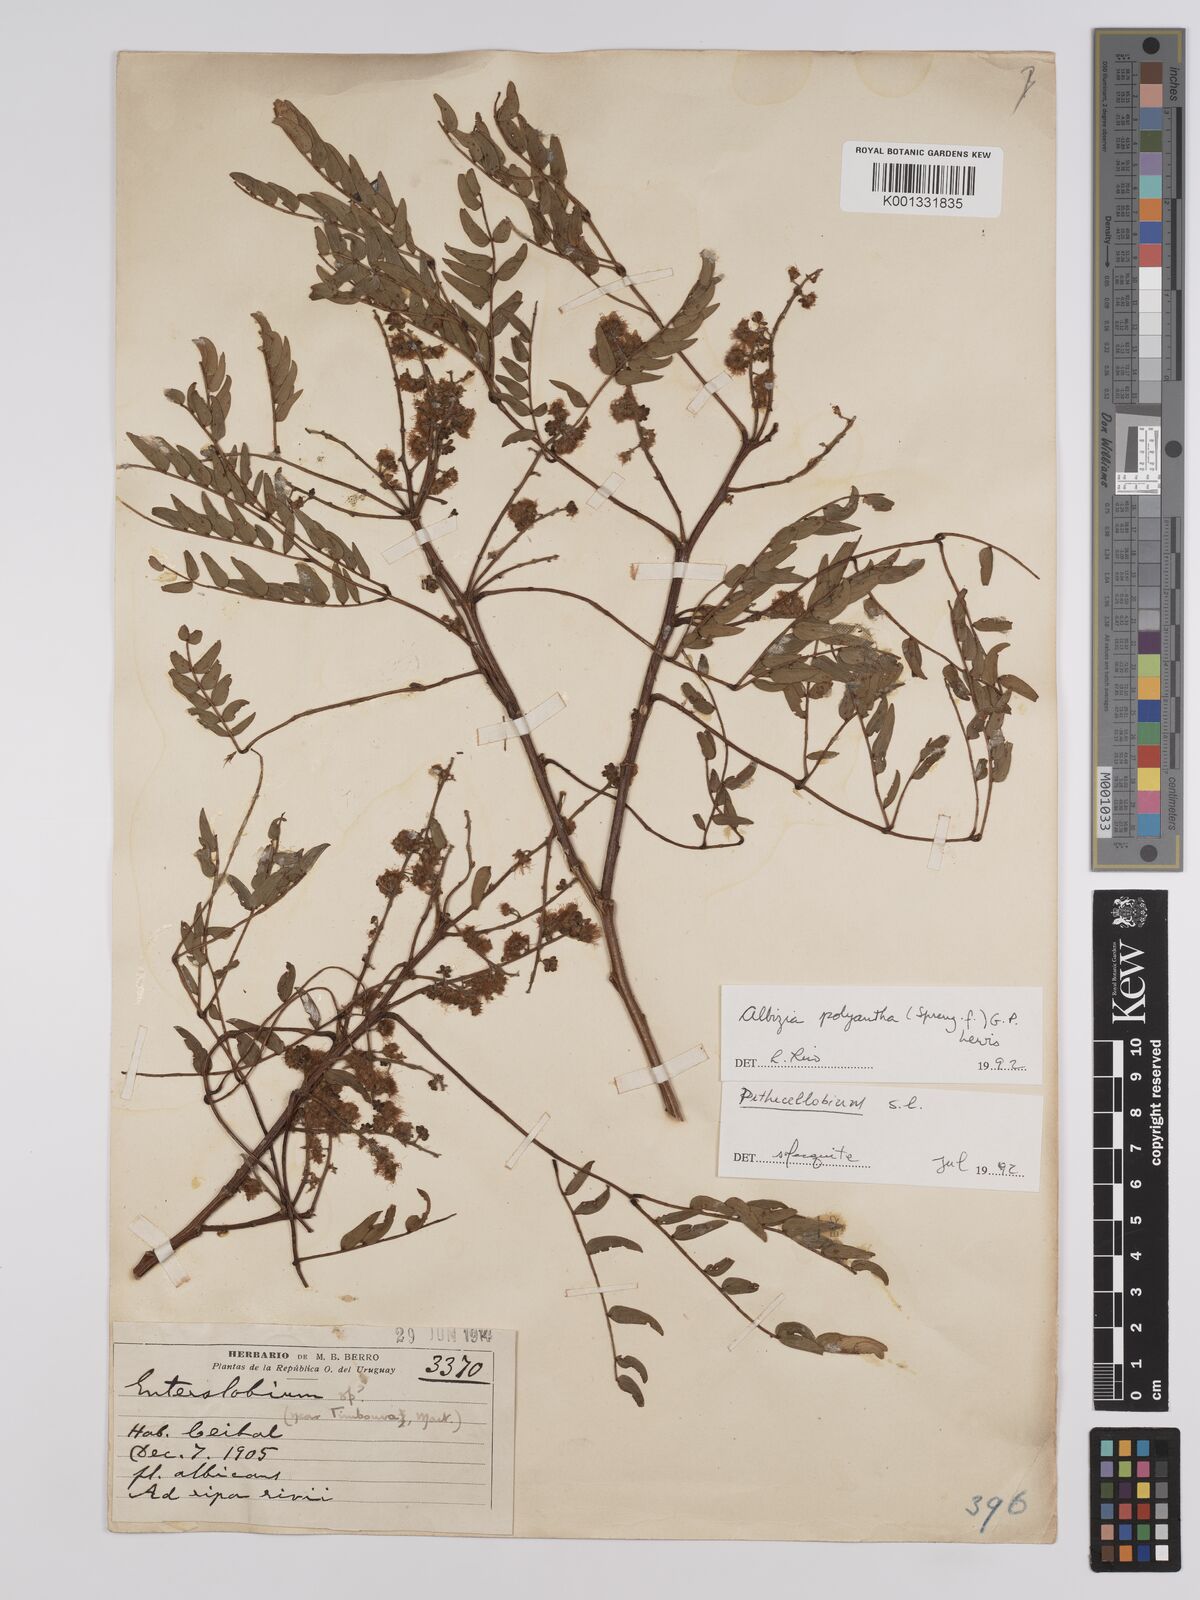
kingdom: Plantae
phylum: Tracheophyta
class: Magnoliopsida
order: Fabales
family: Fabaceae
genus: Albizia
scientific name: Albizia inundata
